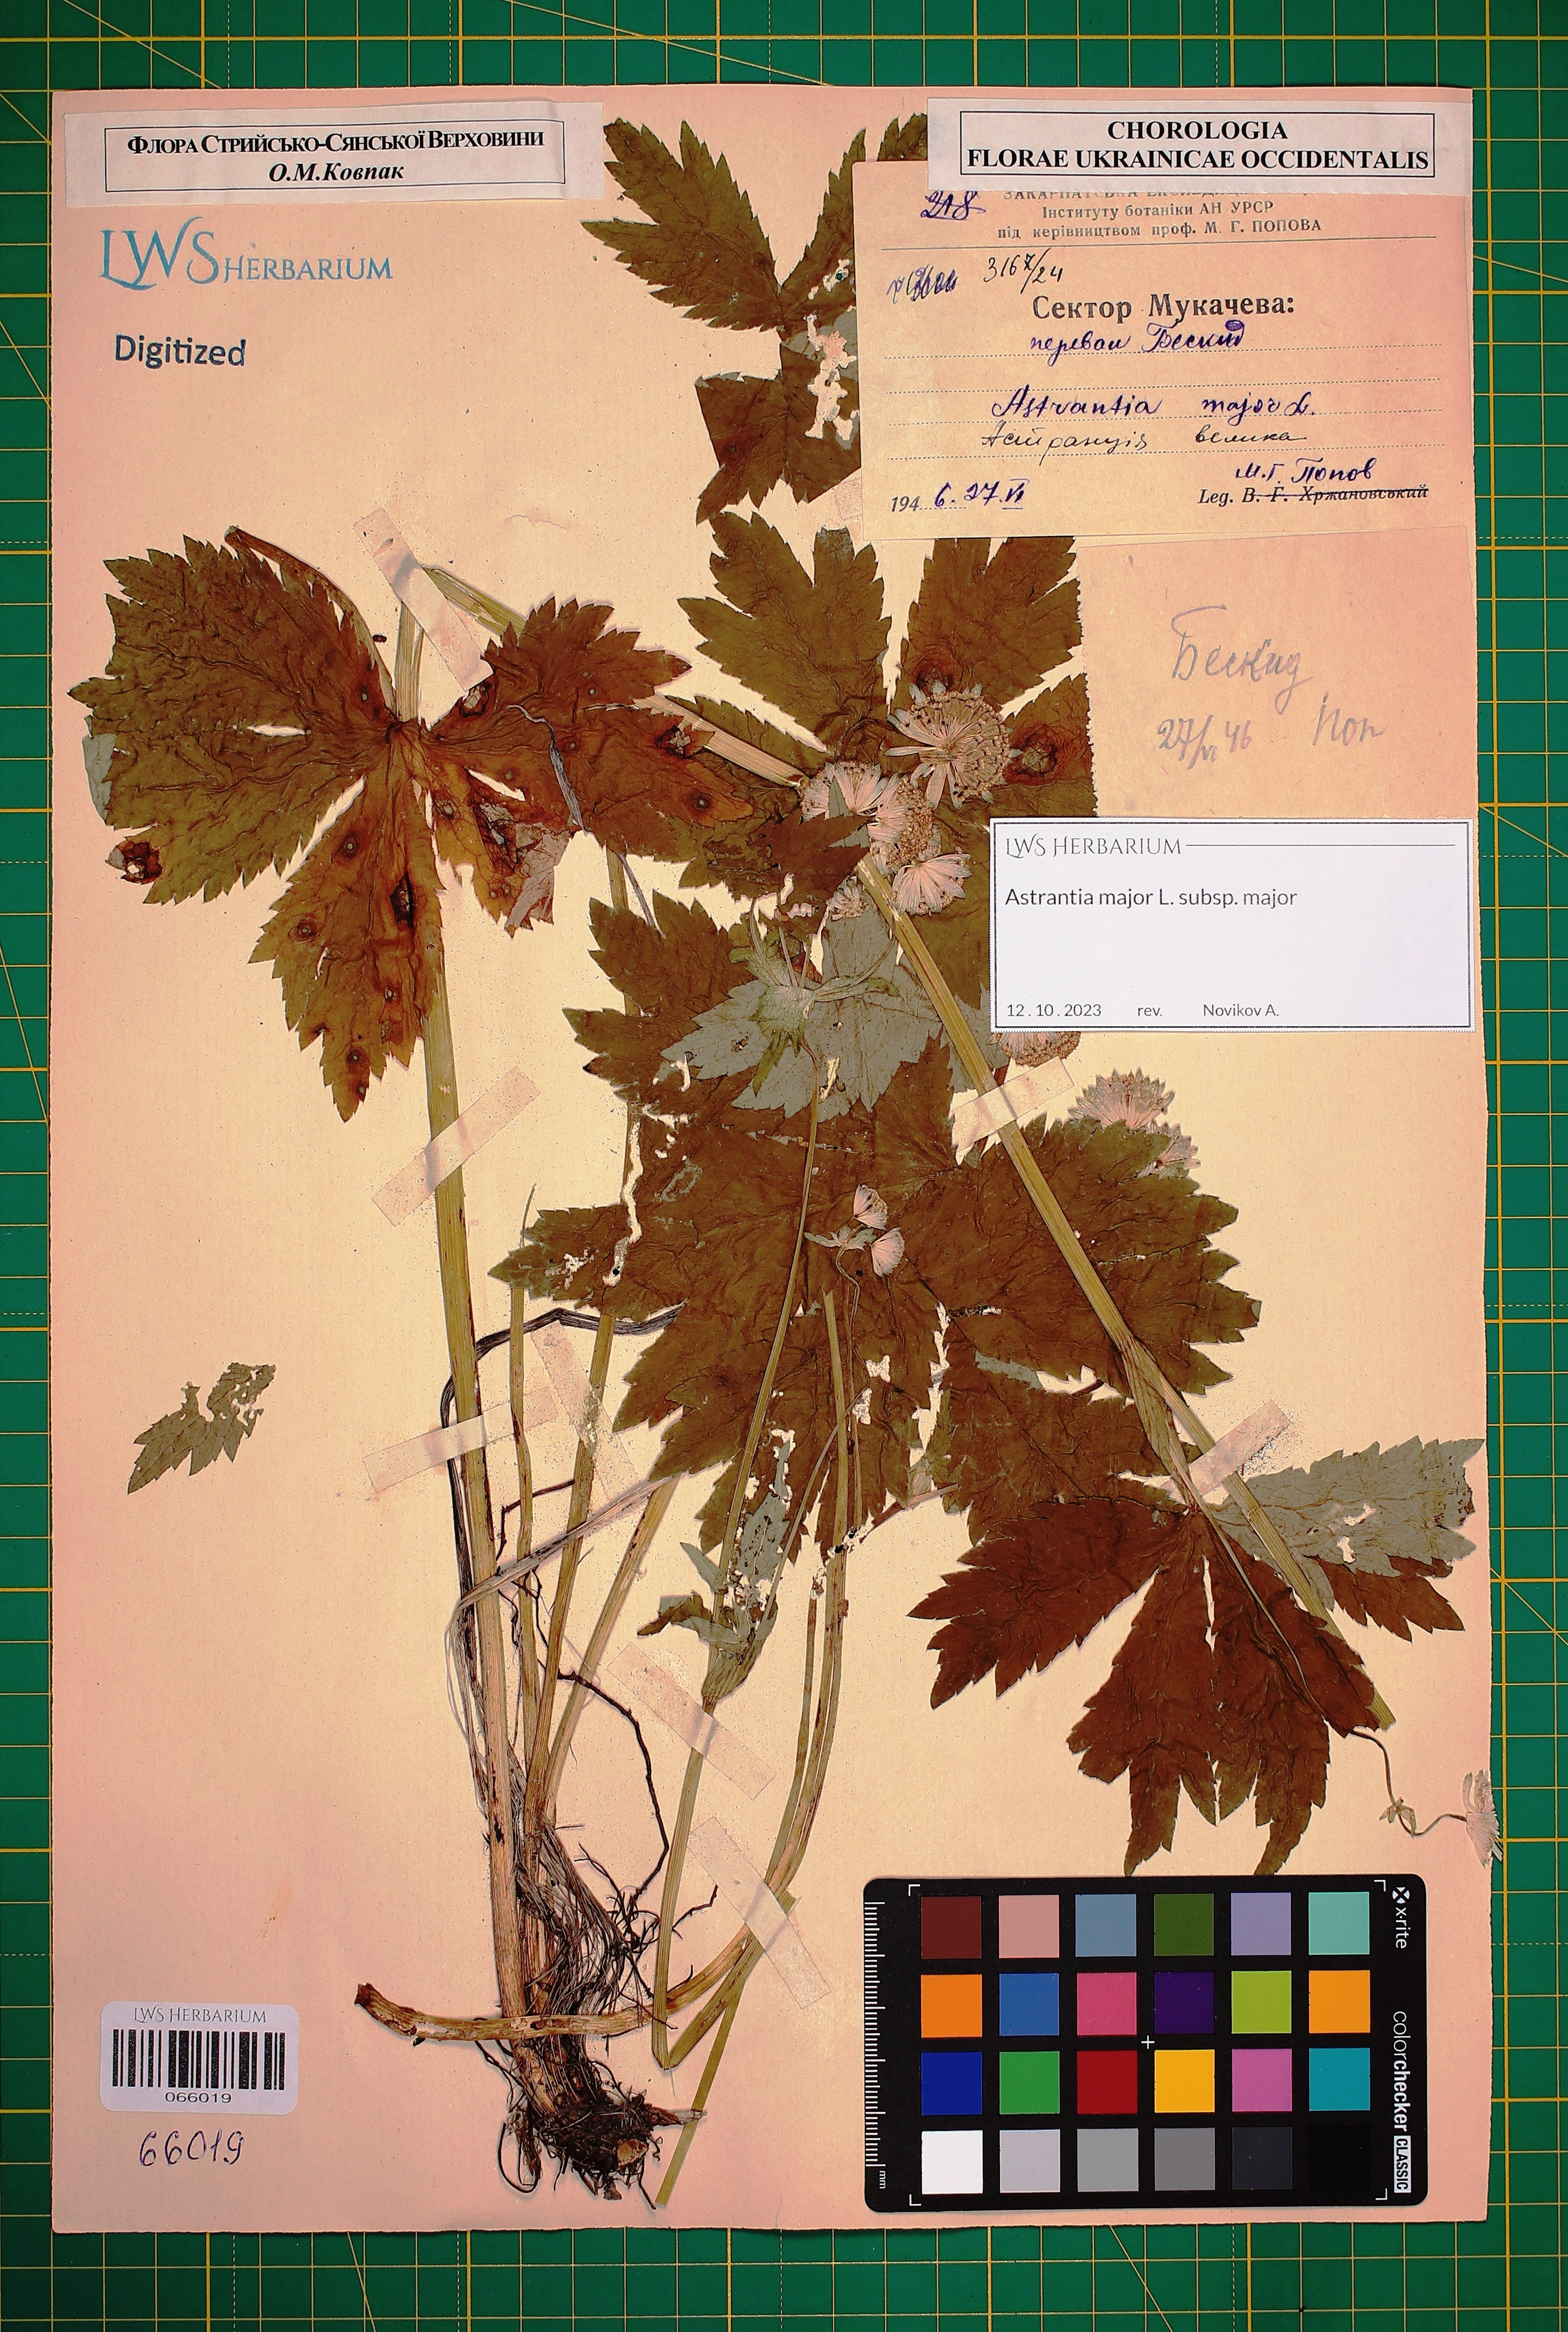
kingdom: Plantae
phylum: Tracheophyta
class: Magnoliopsida
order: Apiales
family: Apiaceae
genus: Astrantia
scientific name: Astrantia major
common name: Greater masterwort
